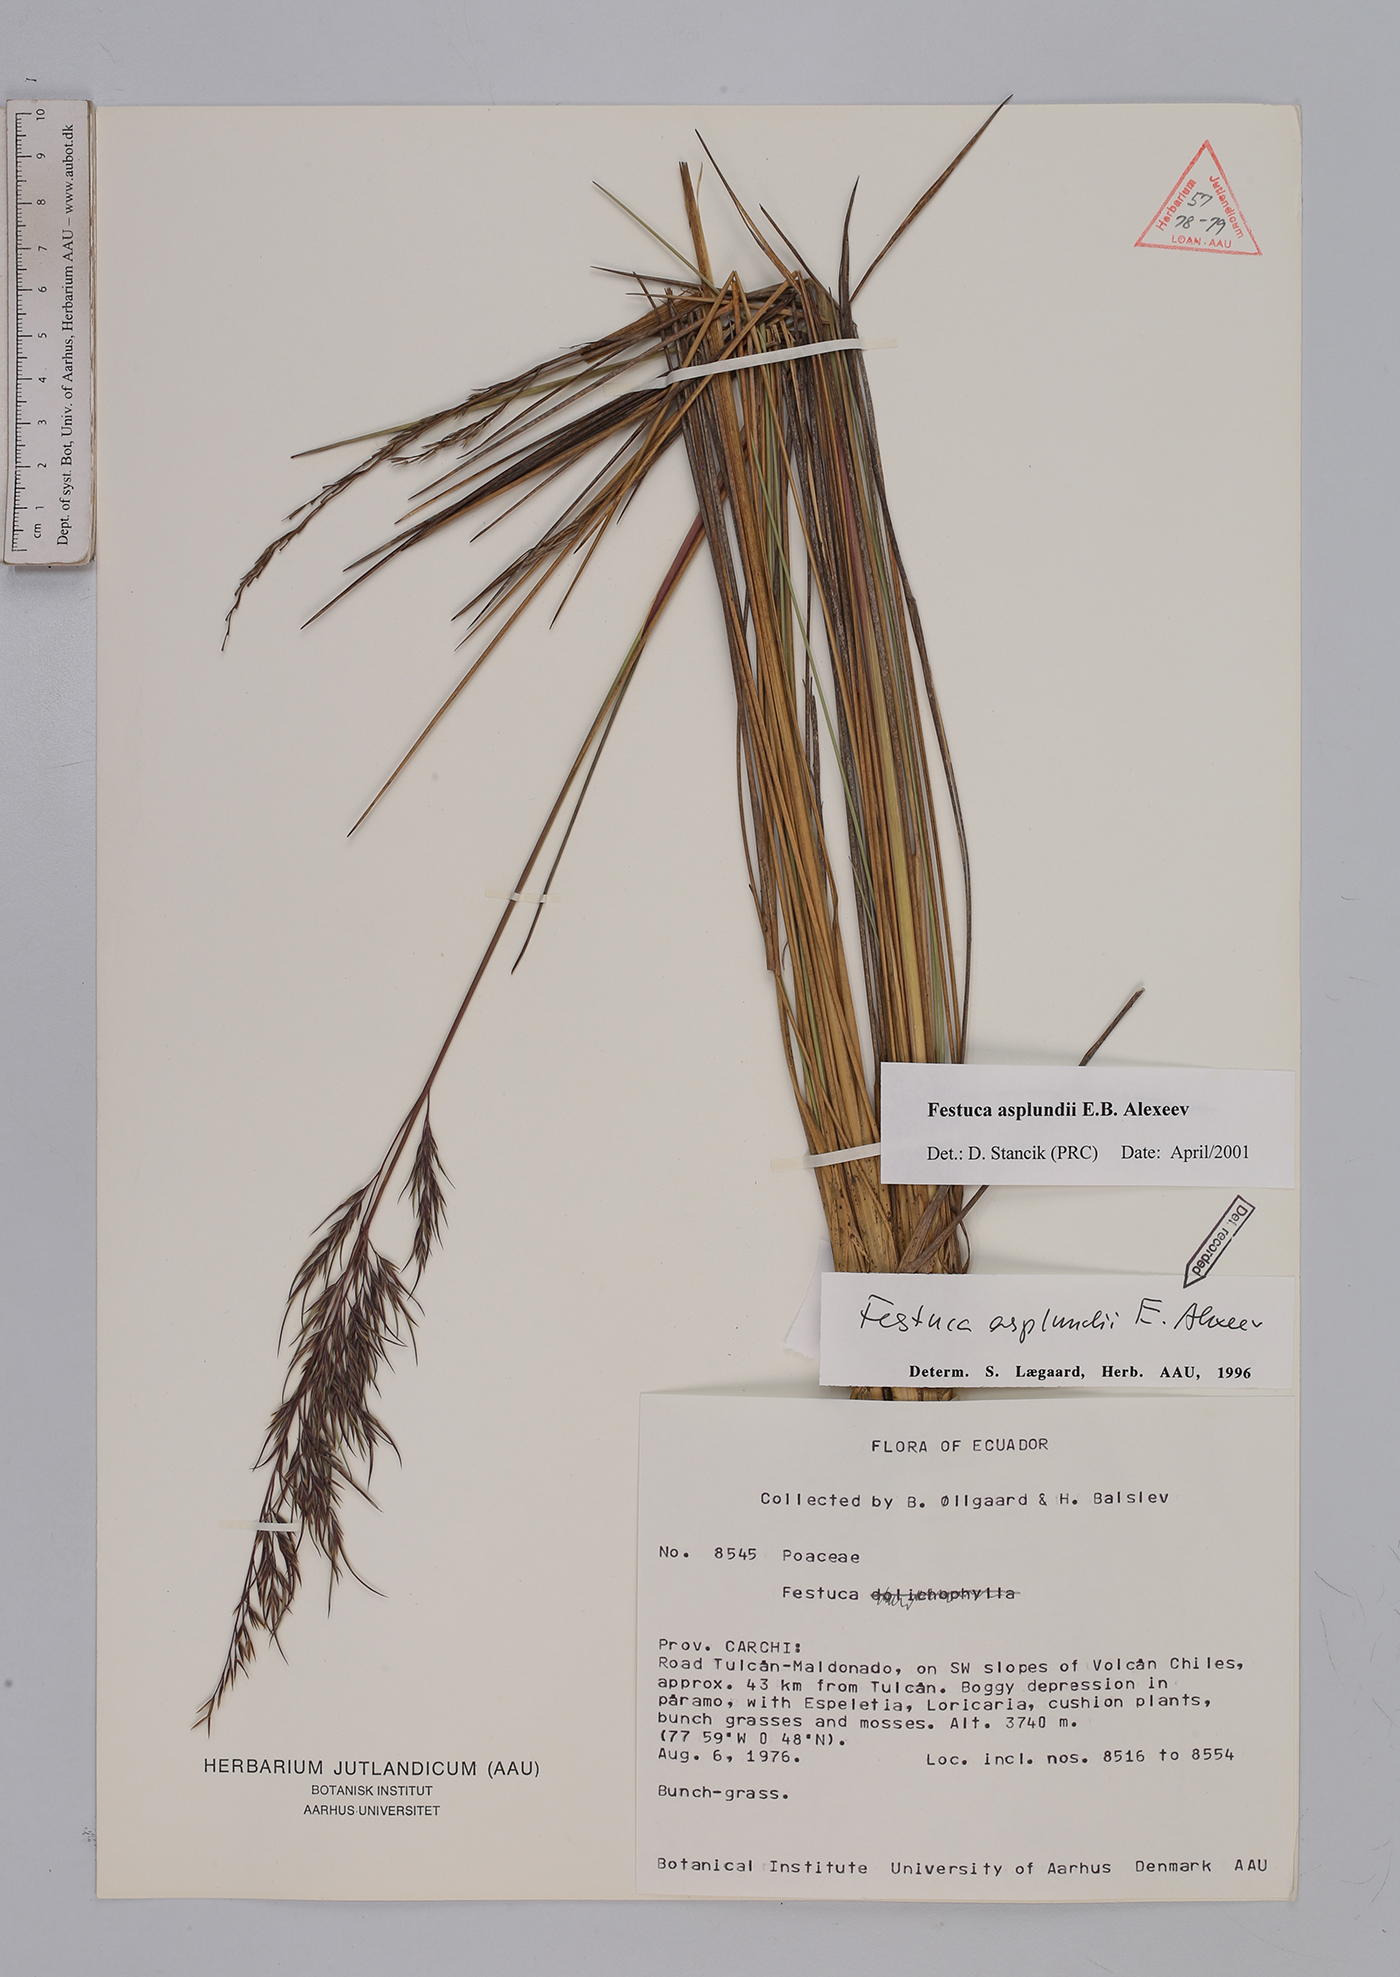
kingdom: Plantae
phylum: Tracheophyta
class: Liliopsida
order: Poales
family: Poaceae
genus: Festuca
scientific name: Festuca asplundii
